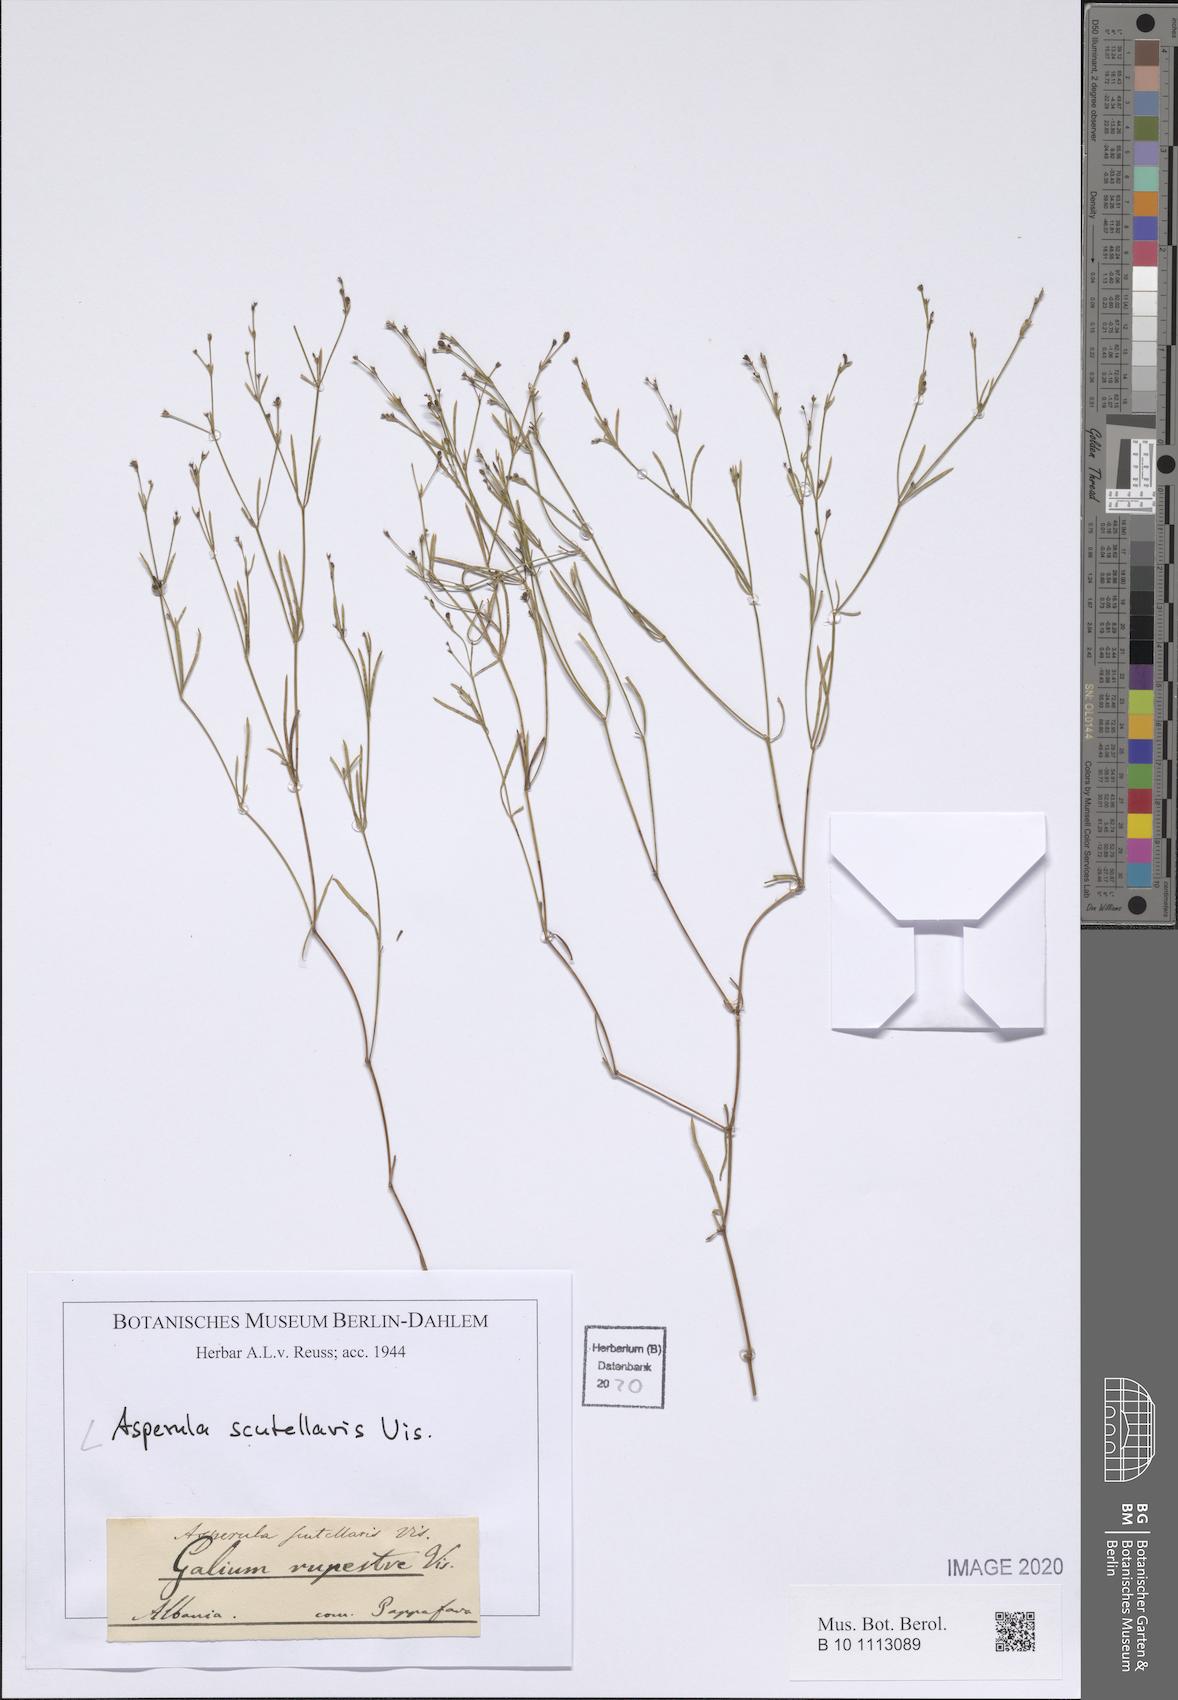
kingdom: Plantae
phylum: Tracheophyta
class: Magnoliopsida
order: Gentianales
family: Rubiaceae
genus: Thliphthisa
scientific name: Thliphthisa rupestris
